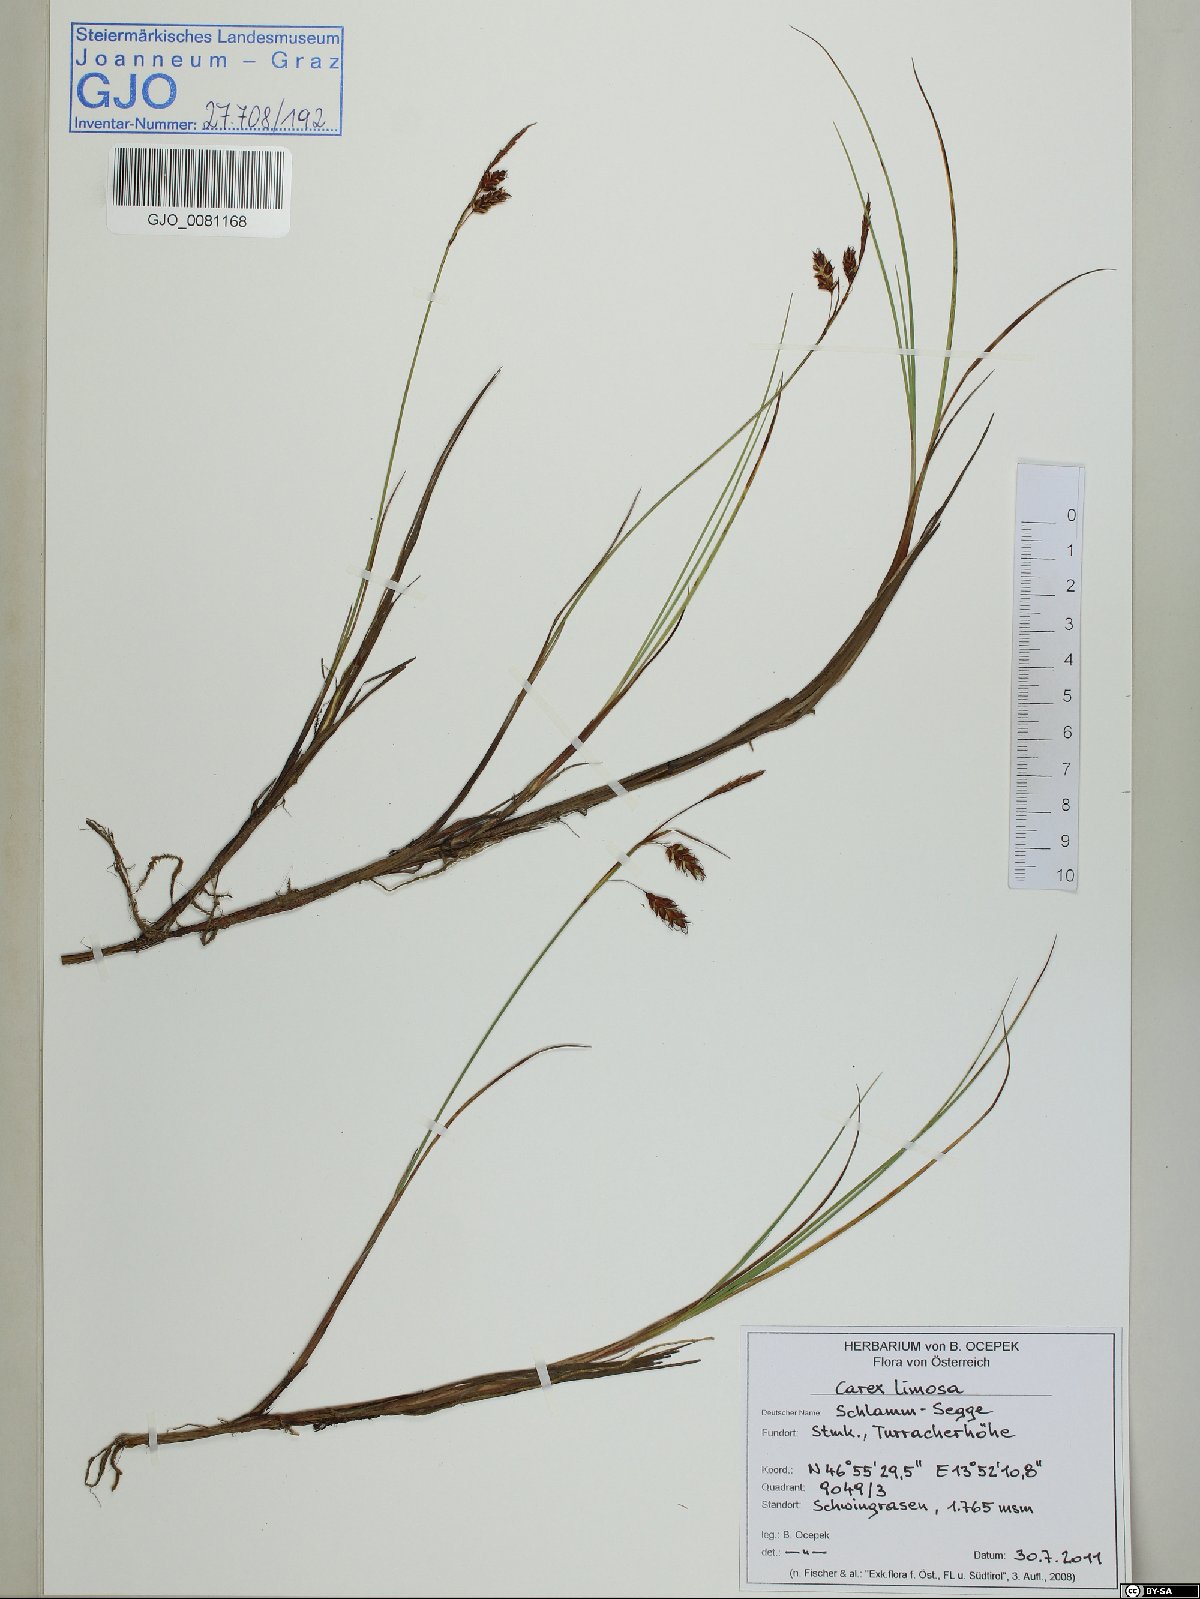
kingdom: Plantae
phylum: Tracheophyta
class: Liliopsida
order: Poales
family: Cyperaceae
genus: Carex
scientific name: Carex limosa
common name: Bog sedge
